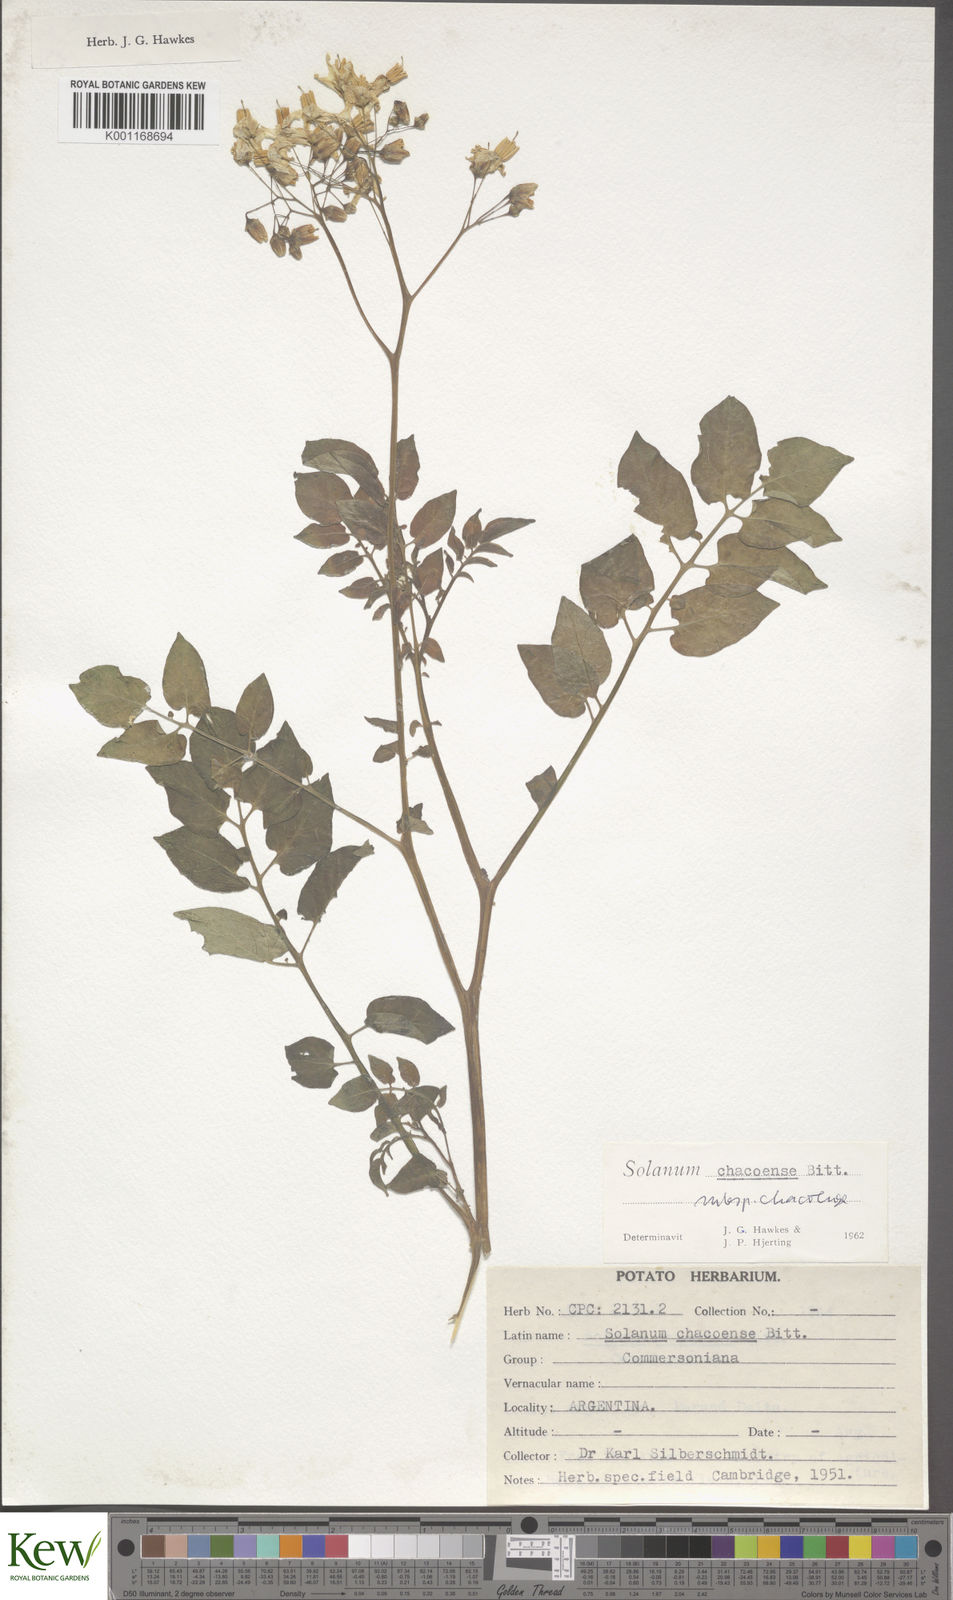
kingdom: Plantae
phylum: Tracheophyta
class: Magnoliopsida
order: Solanales
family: Solanaceae
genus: Solanum
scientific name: Solanum chacoense
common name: Chaco potato
